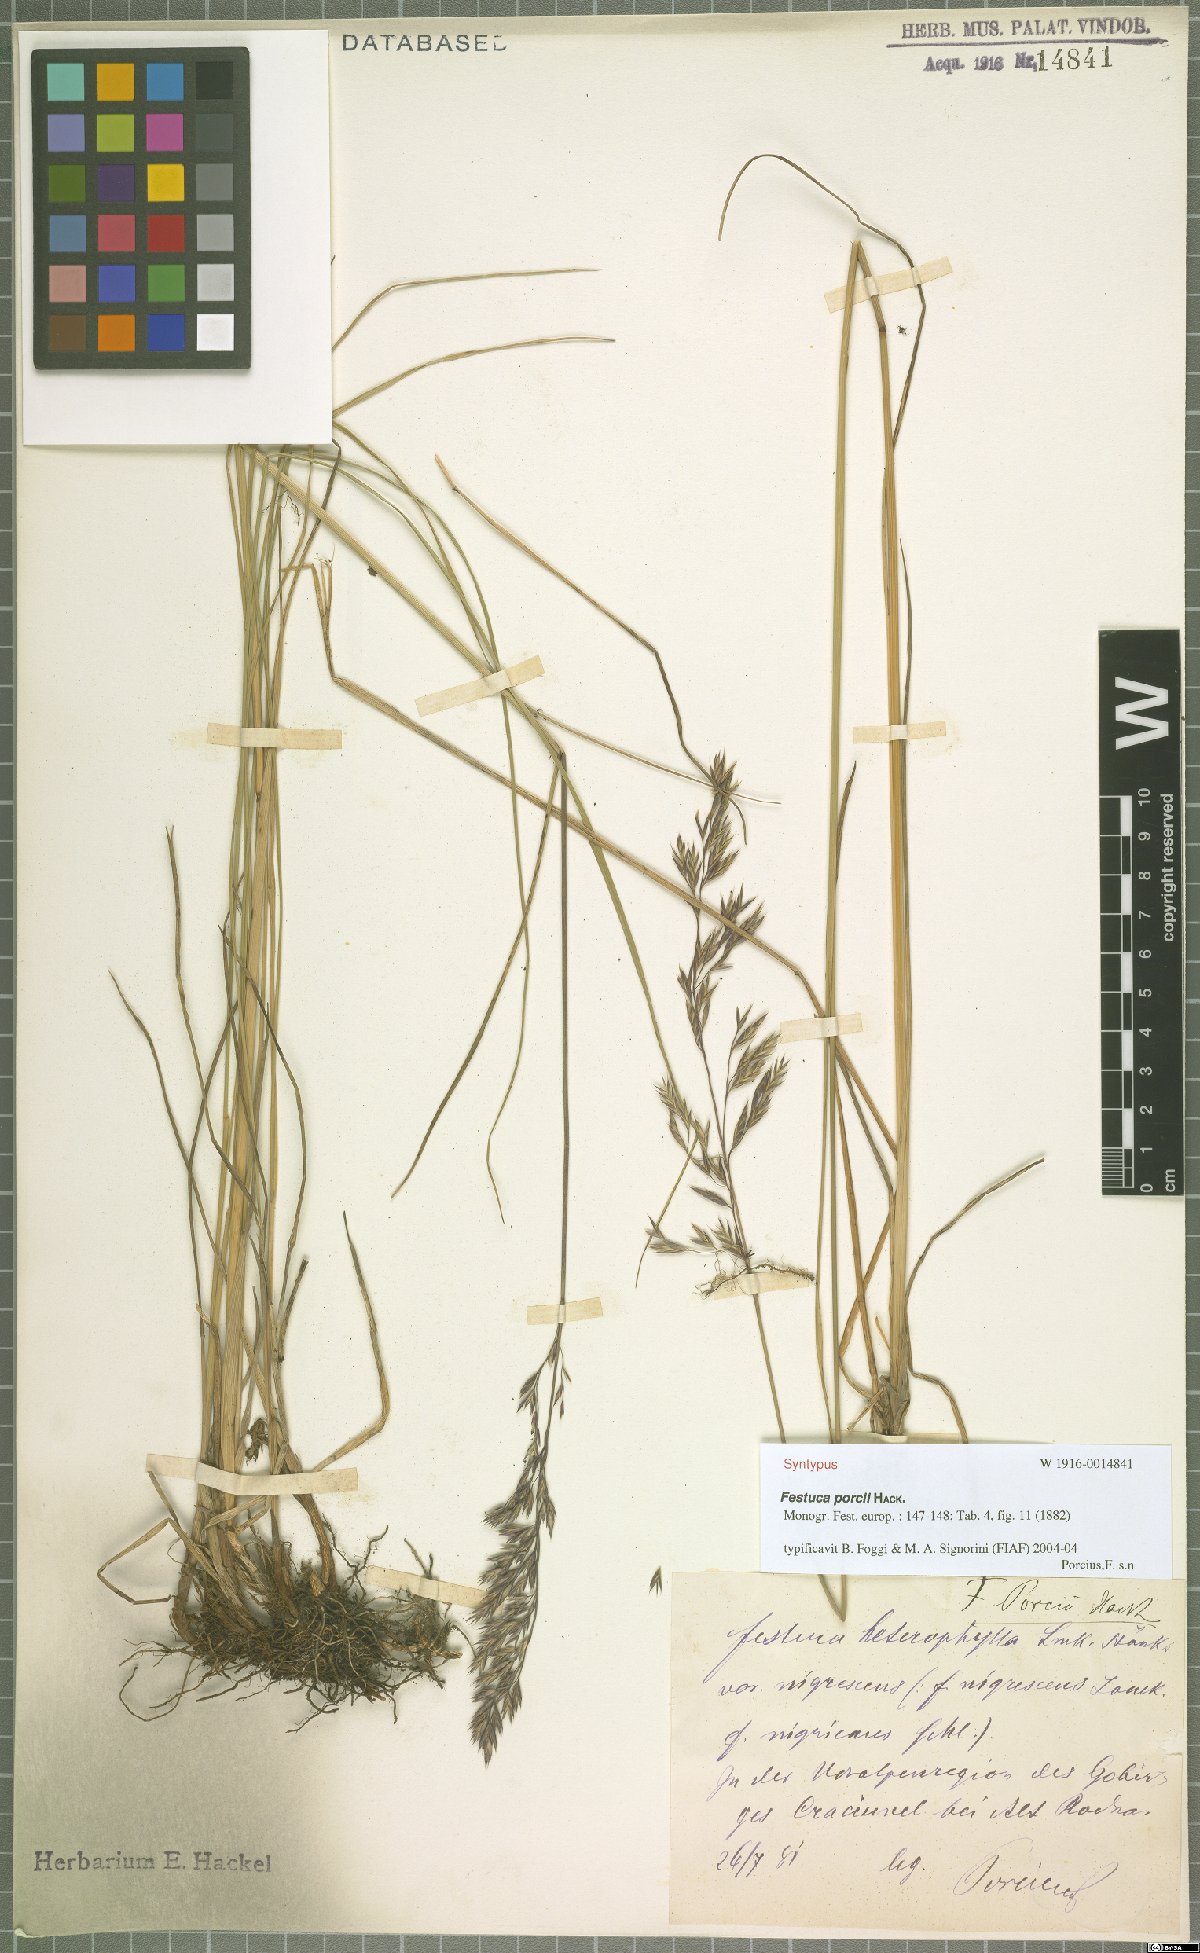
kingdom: Plantae
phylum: Tracheophyta
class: Liliopsida
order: Poales
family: Poaceae
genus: Festuca
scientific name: Festuca porcii
